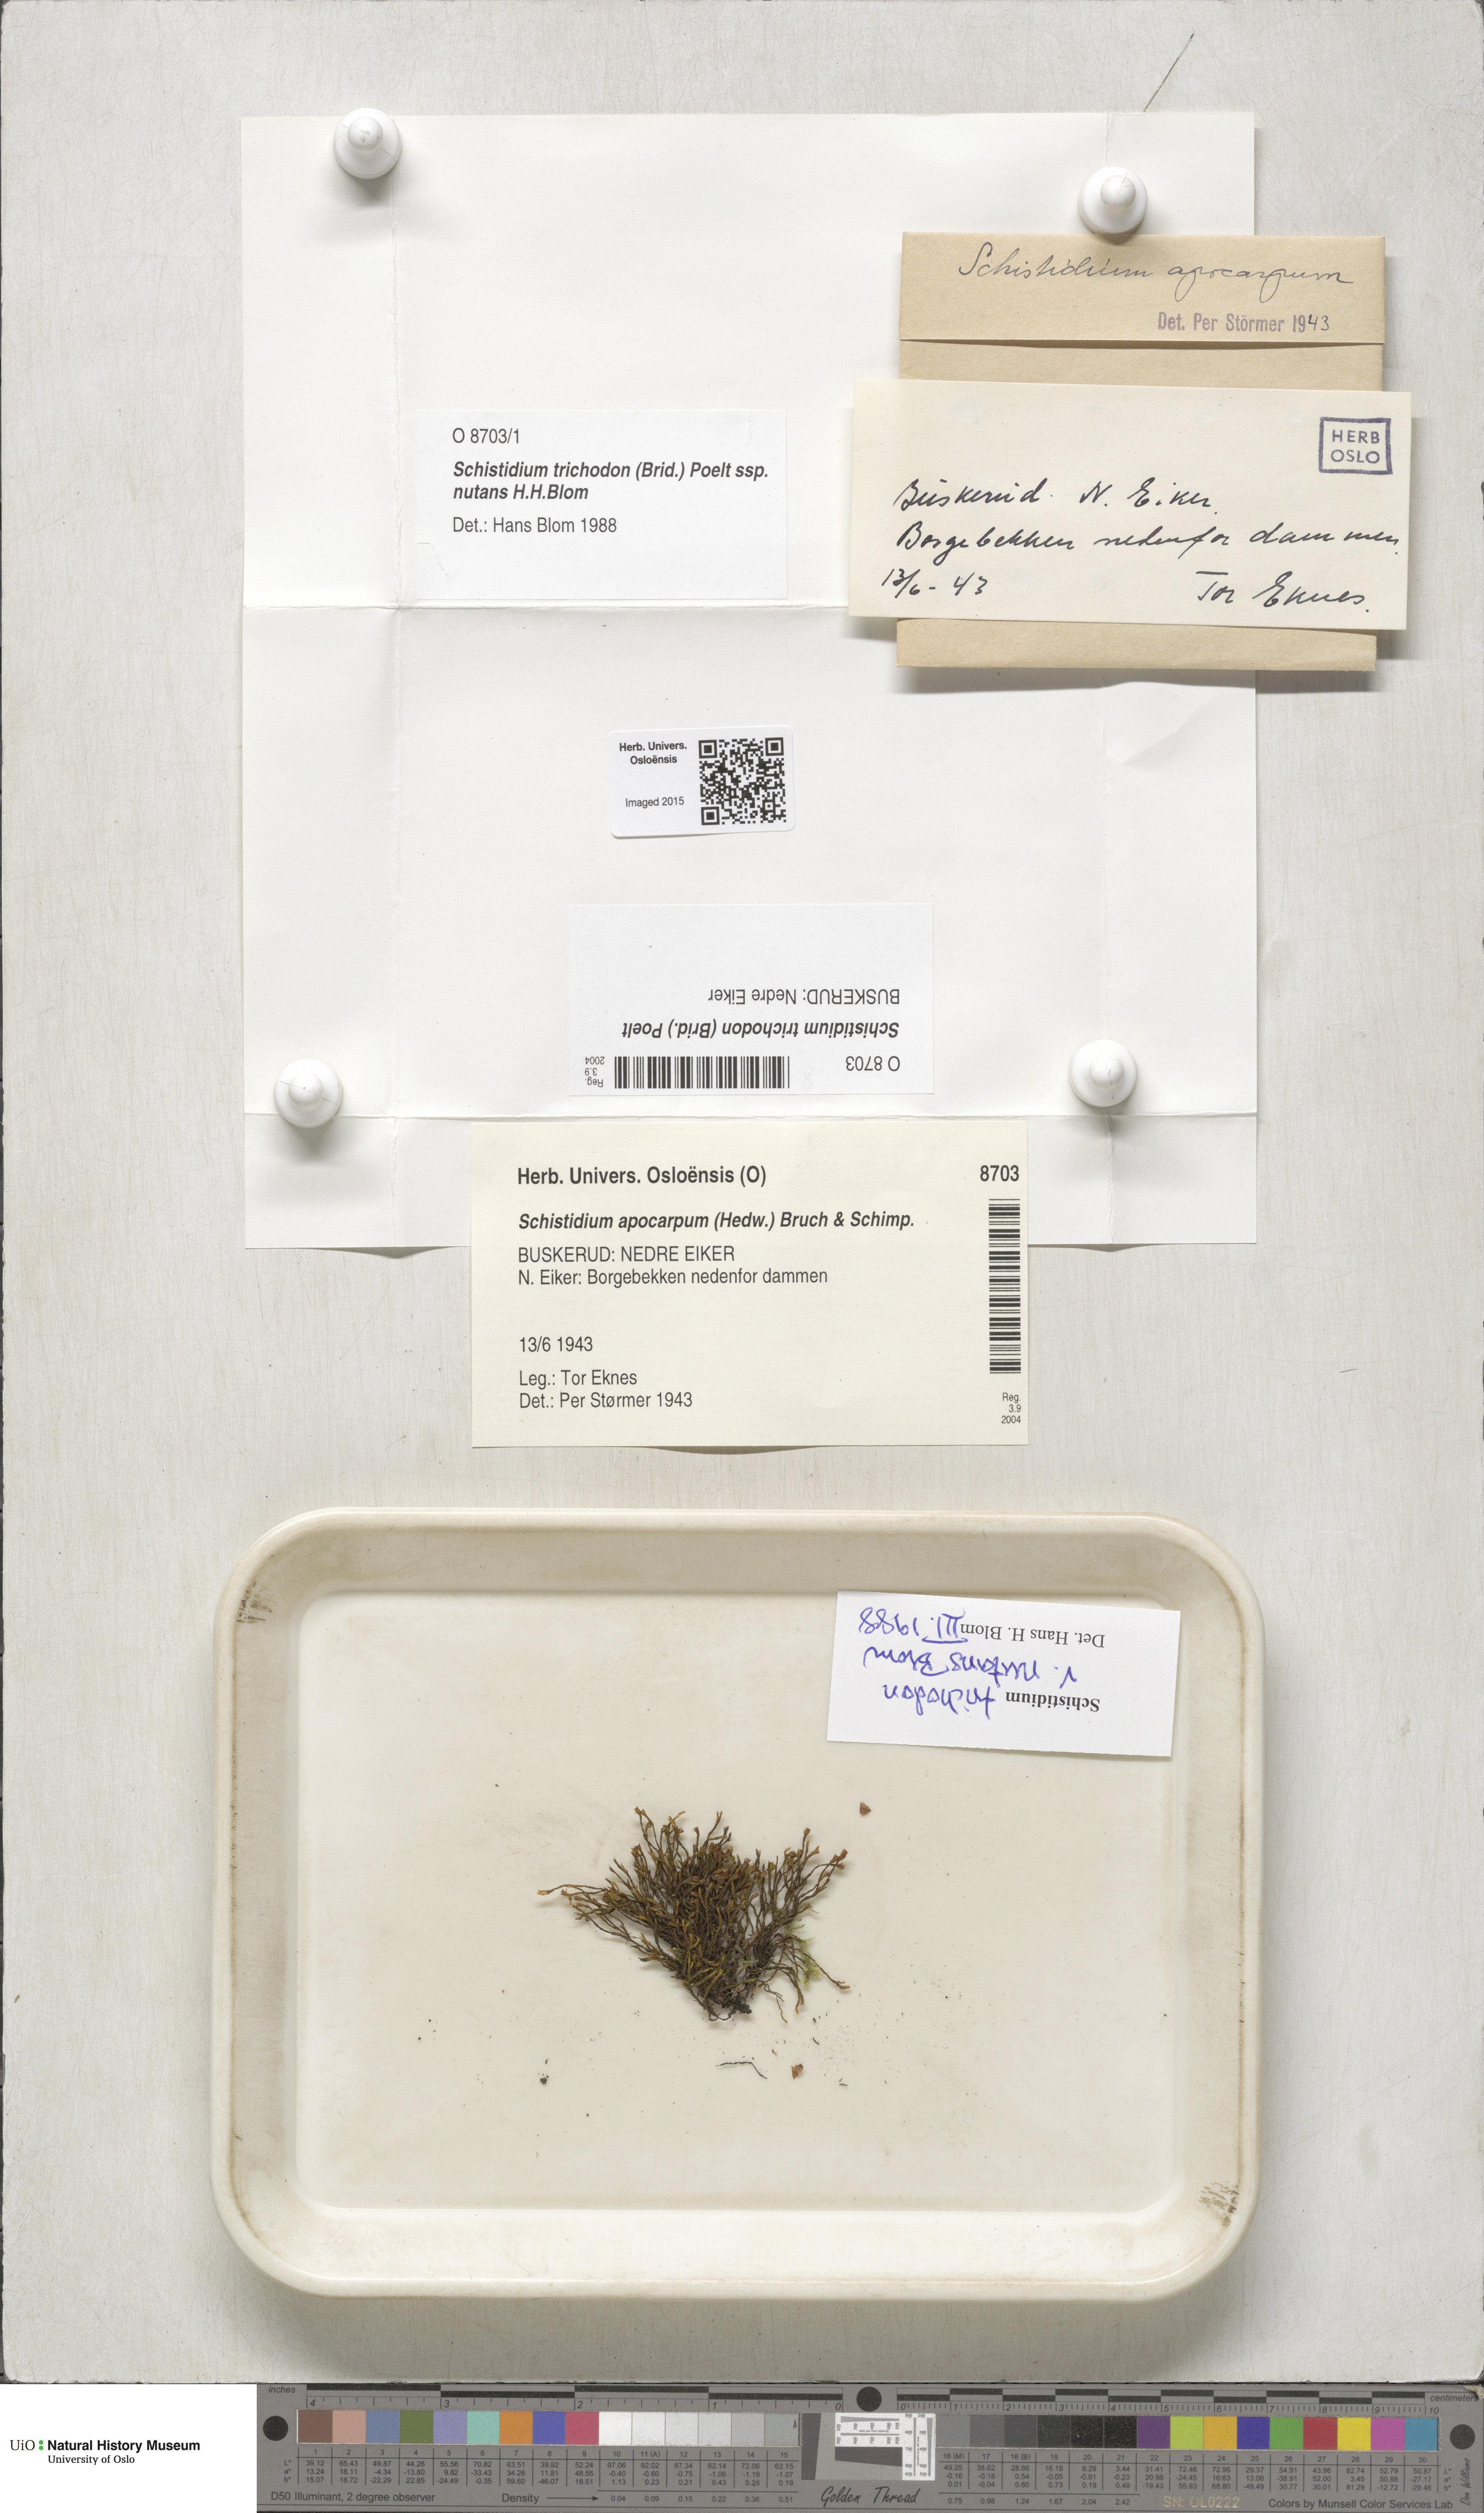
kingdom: Plantae
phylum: Bryophyta
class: Bryopsida
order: Grimmiales
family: Grimmiaceae
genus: Schistidium
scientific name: Schistidium trichodon
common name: Black bloom moss
